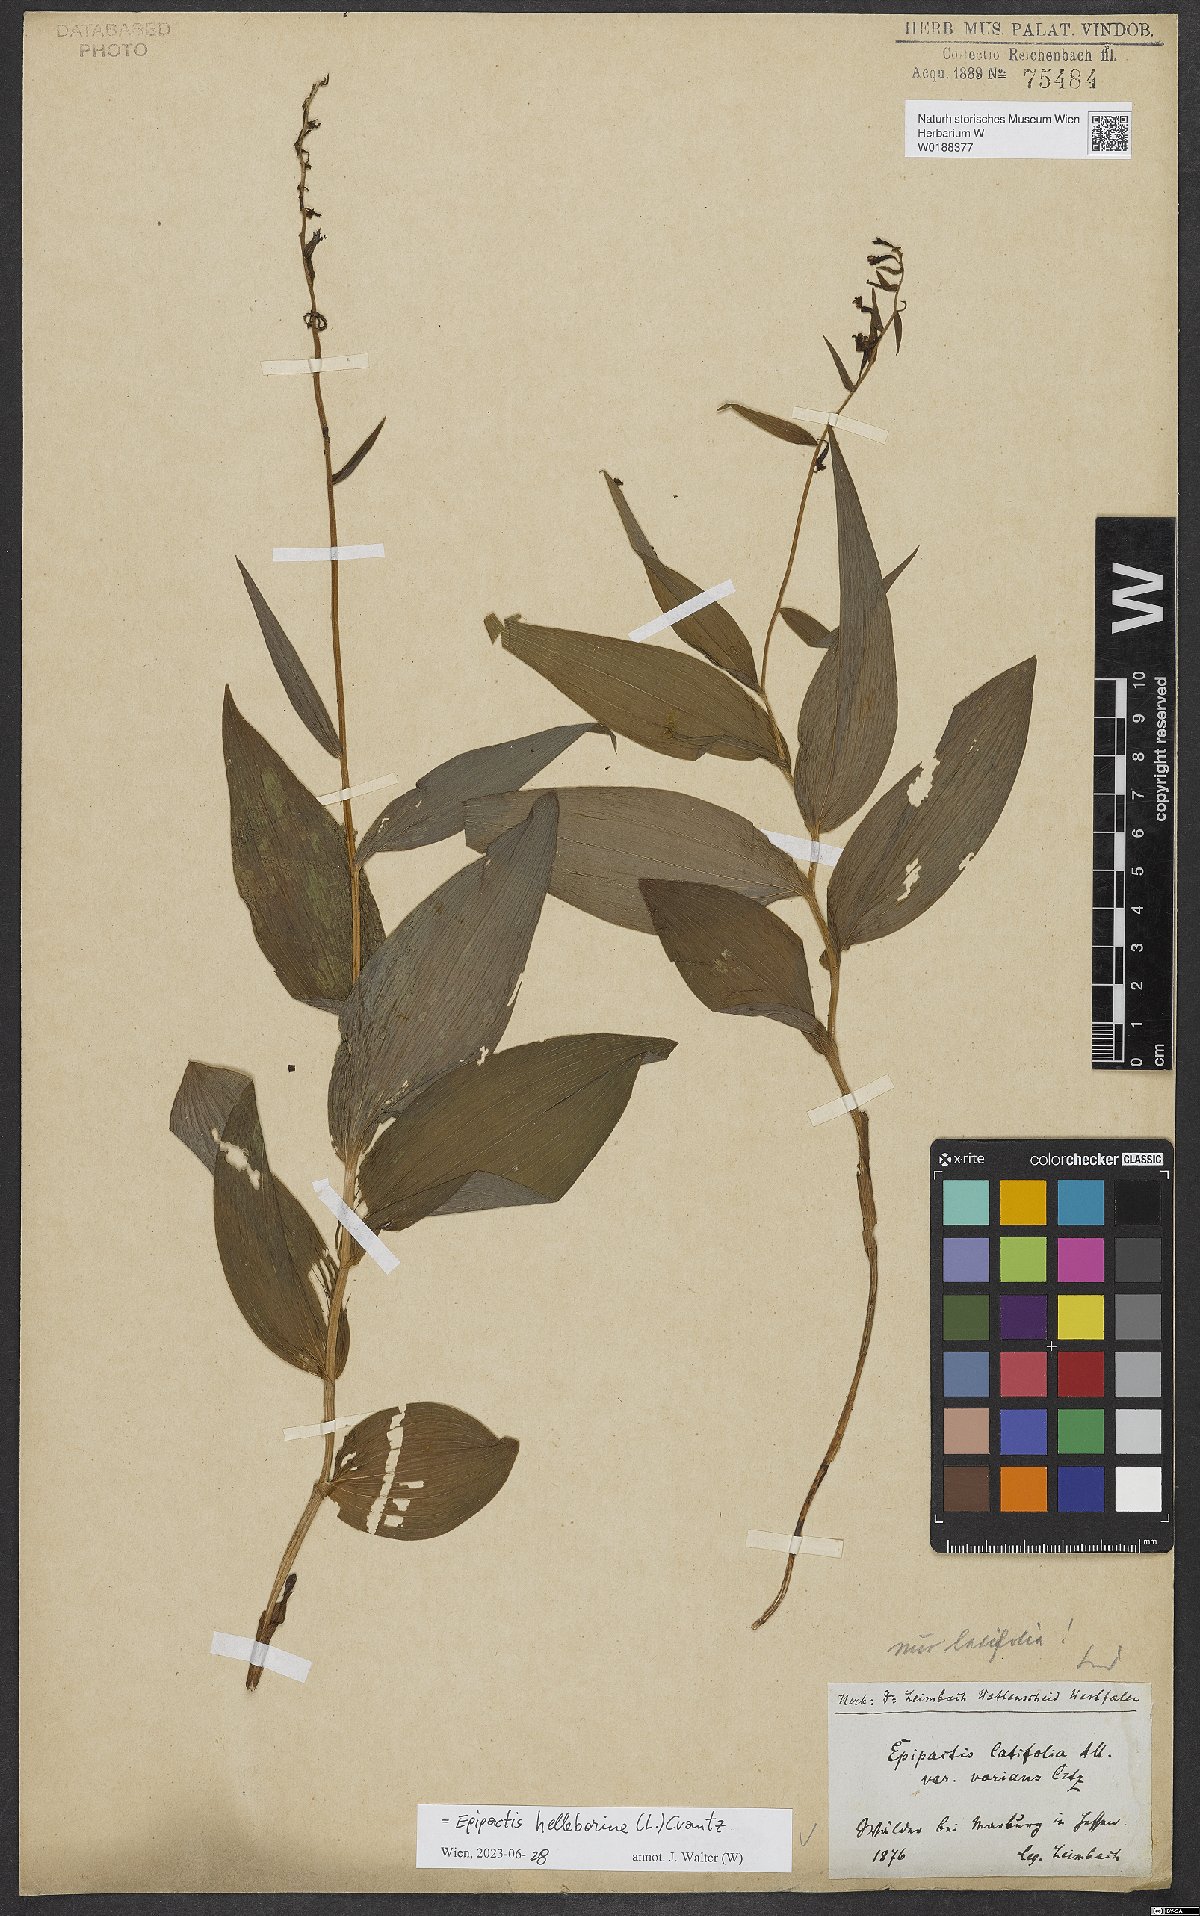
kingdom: Plantae
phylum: Tracheophyta
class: Liliopsida
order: Asparagales
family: Orchidaceae
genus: Epipactis
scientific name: Epipactis helleborine
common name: Broad-leaved helleborine
